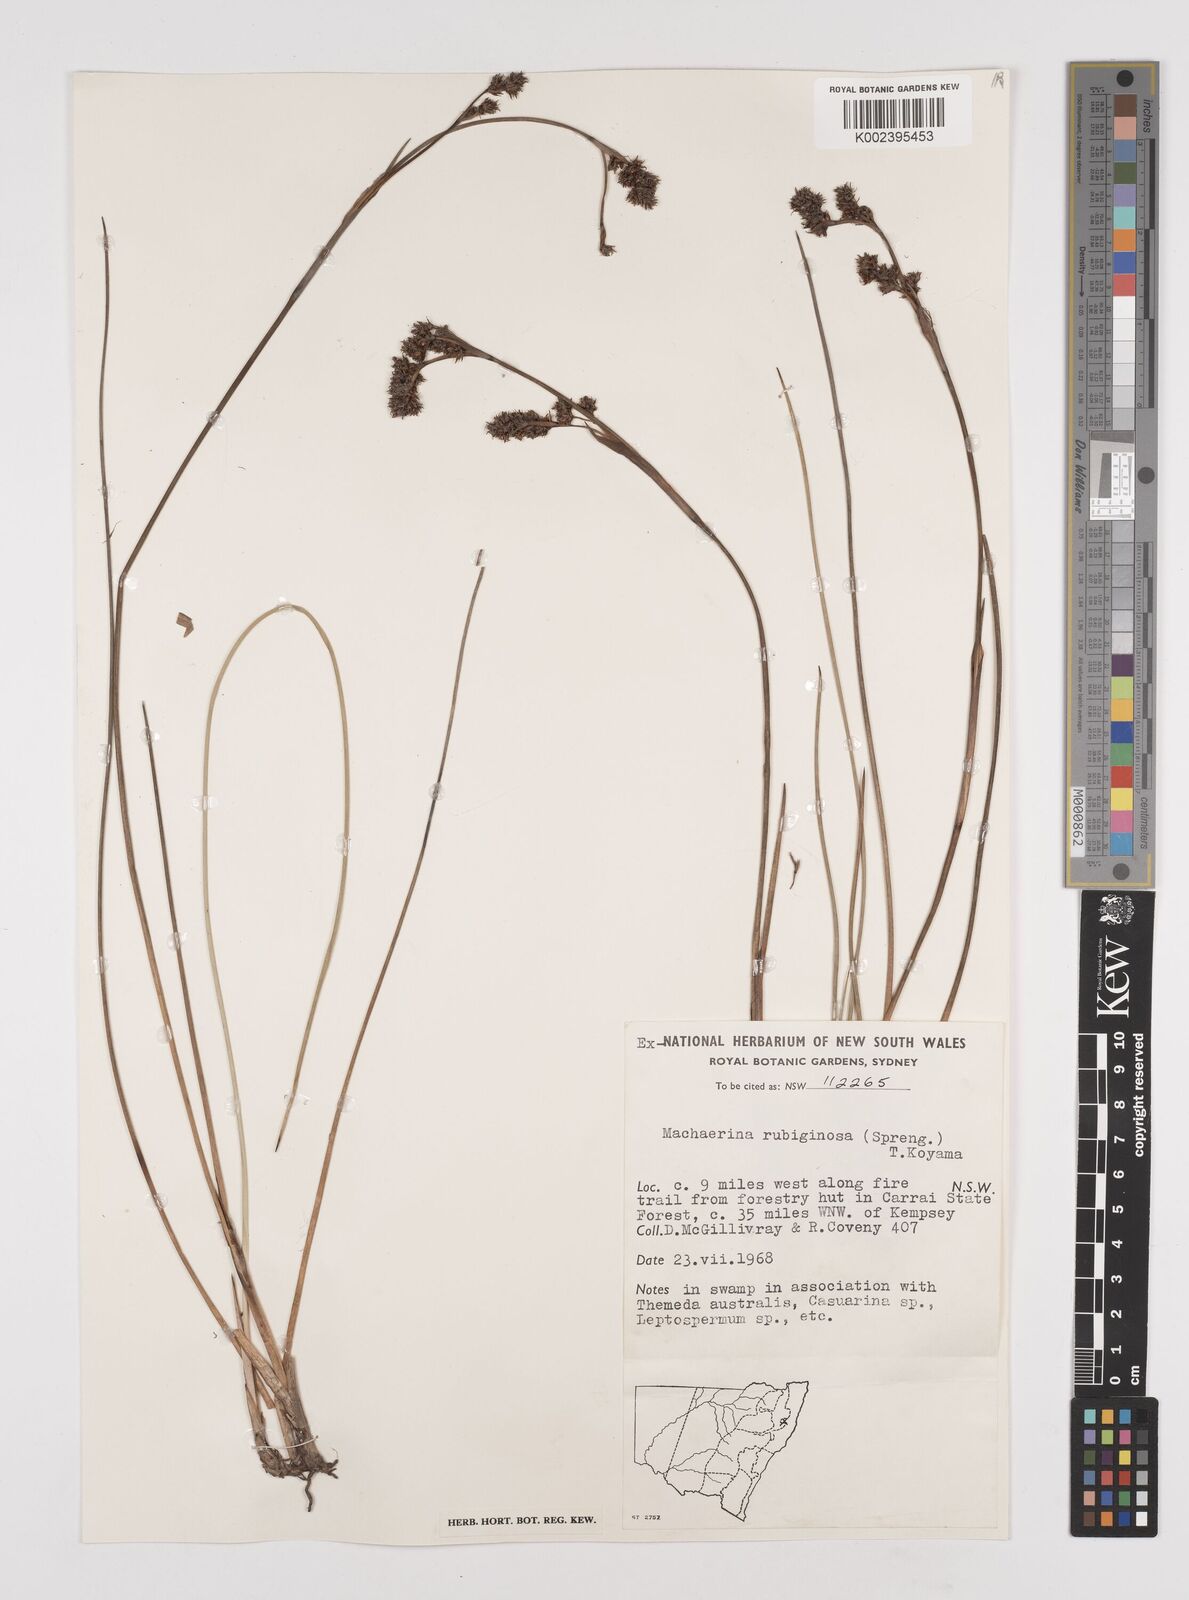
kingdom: Plantae
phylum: Tracheophyta
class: Liliopsida
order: Poales
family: Cyperaceae
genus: Machaerina
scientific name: Machaerina
